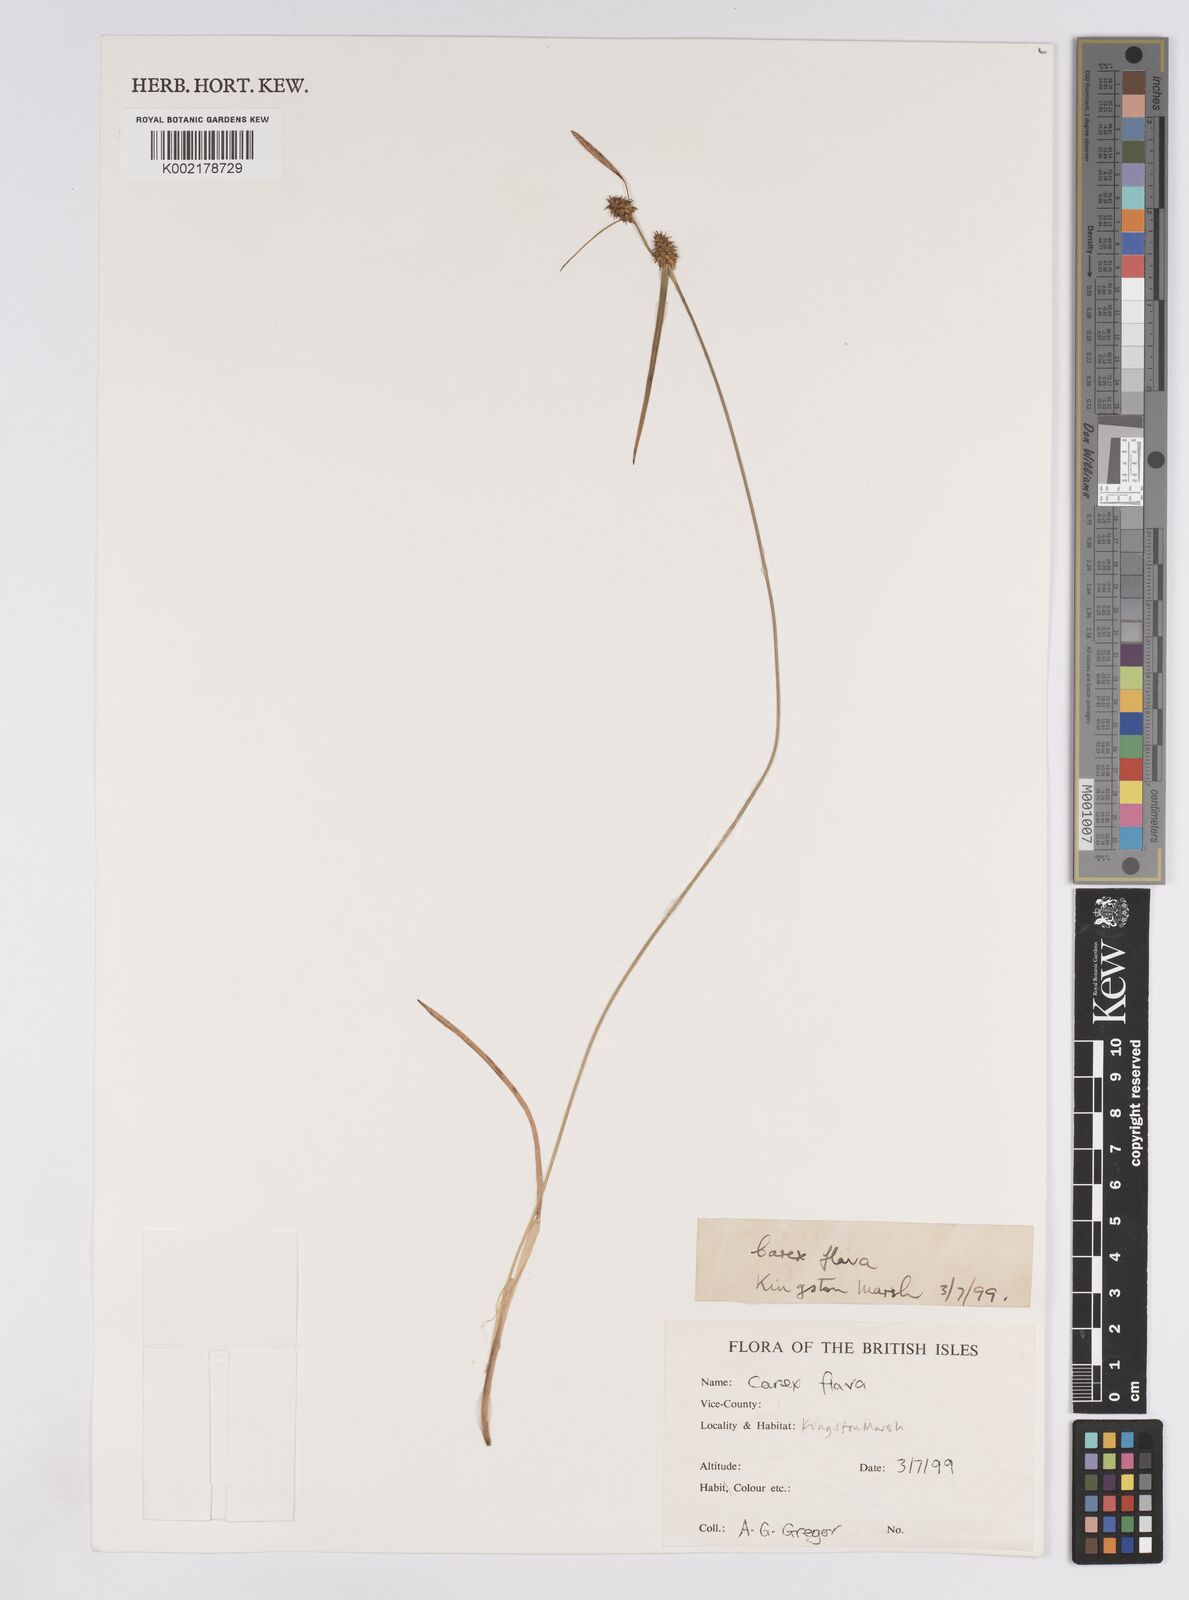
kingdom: Plantae
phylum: Tracheophyta
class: Liliopsida
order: Poales
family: Cyperaceae
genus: Carex
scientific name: Carex lepidocarpa
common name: Long-stalked yellow-sedge
